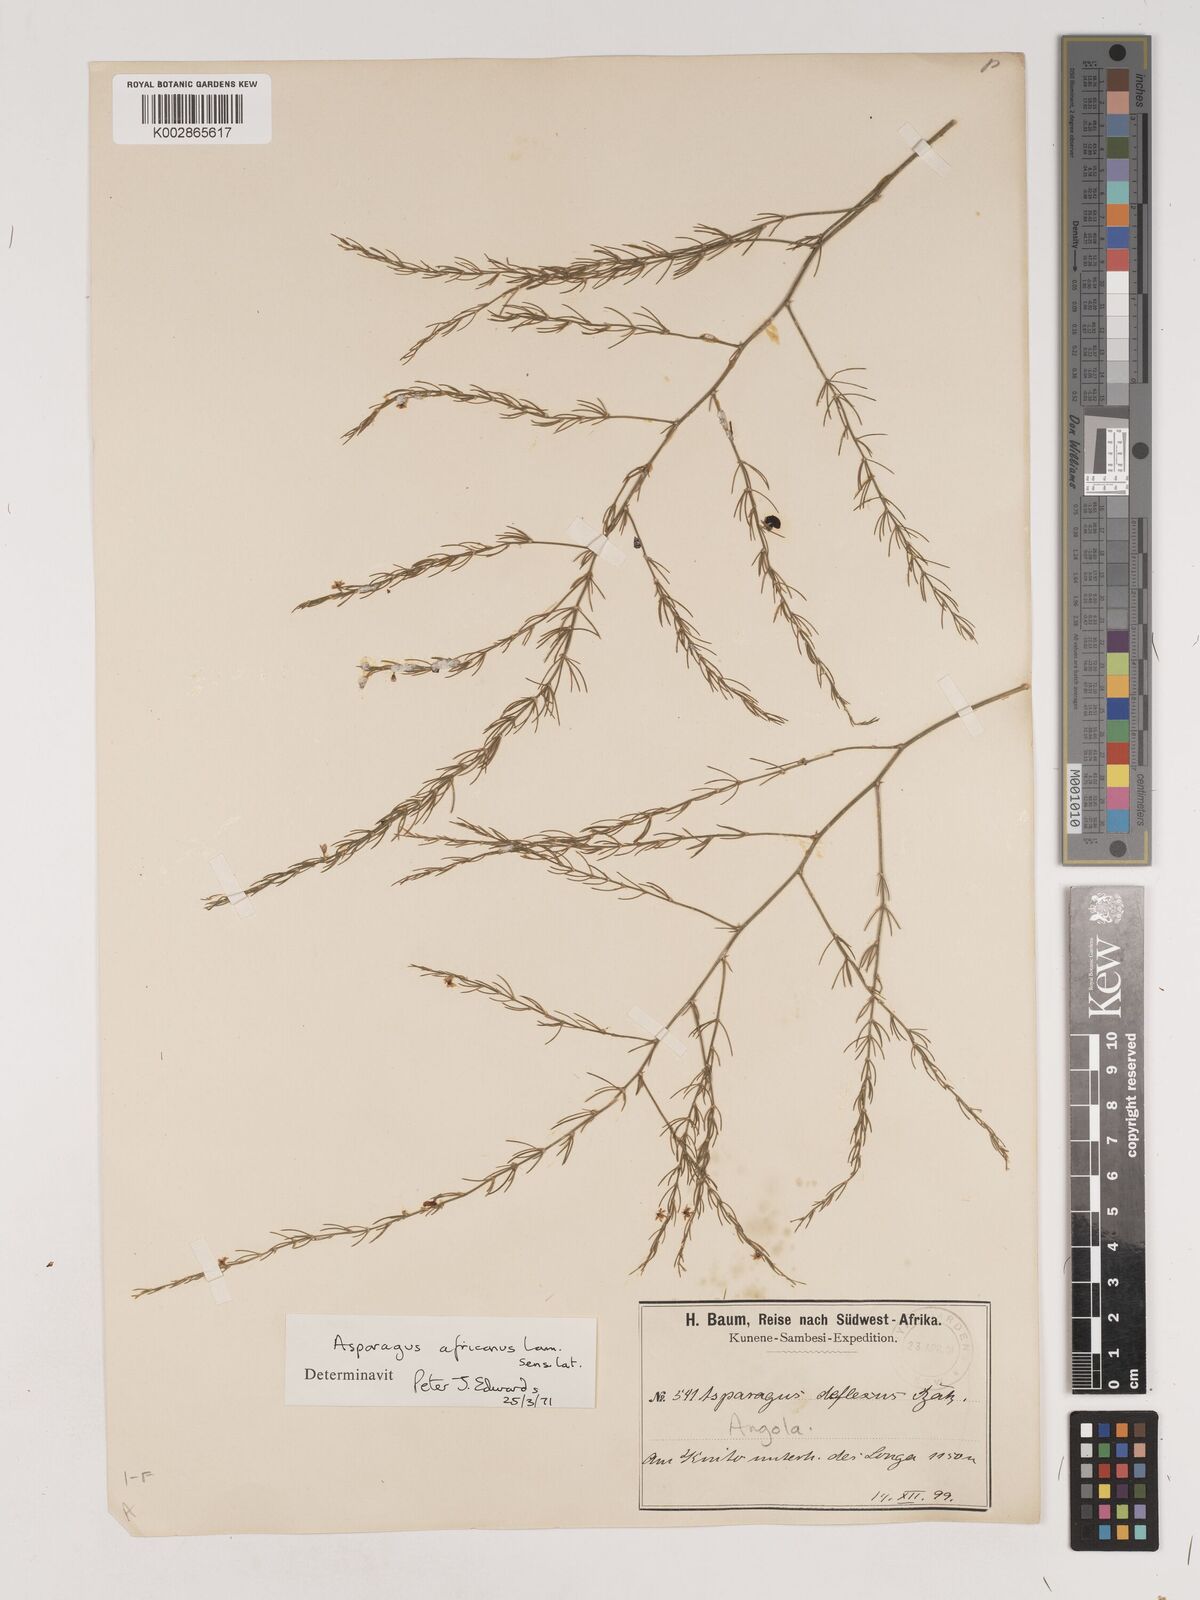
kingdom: Plantae
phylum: Tracheophyta
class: Liliopsida
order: Asparagales
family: Asparagaceae
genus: Asparagus
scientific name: Asparagus africanus
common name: Asparagus-fern
